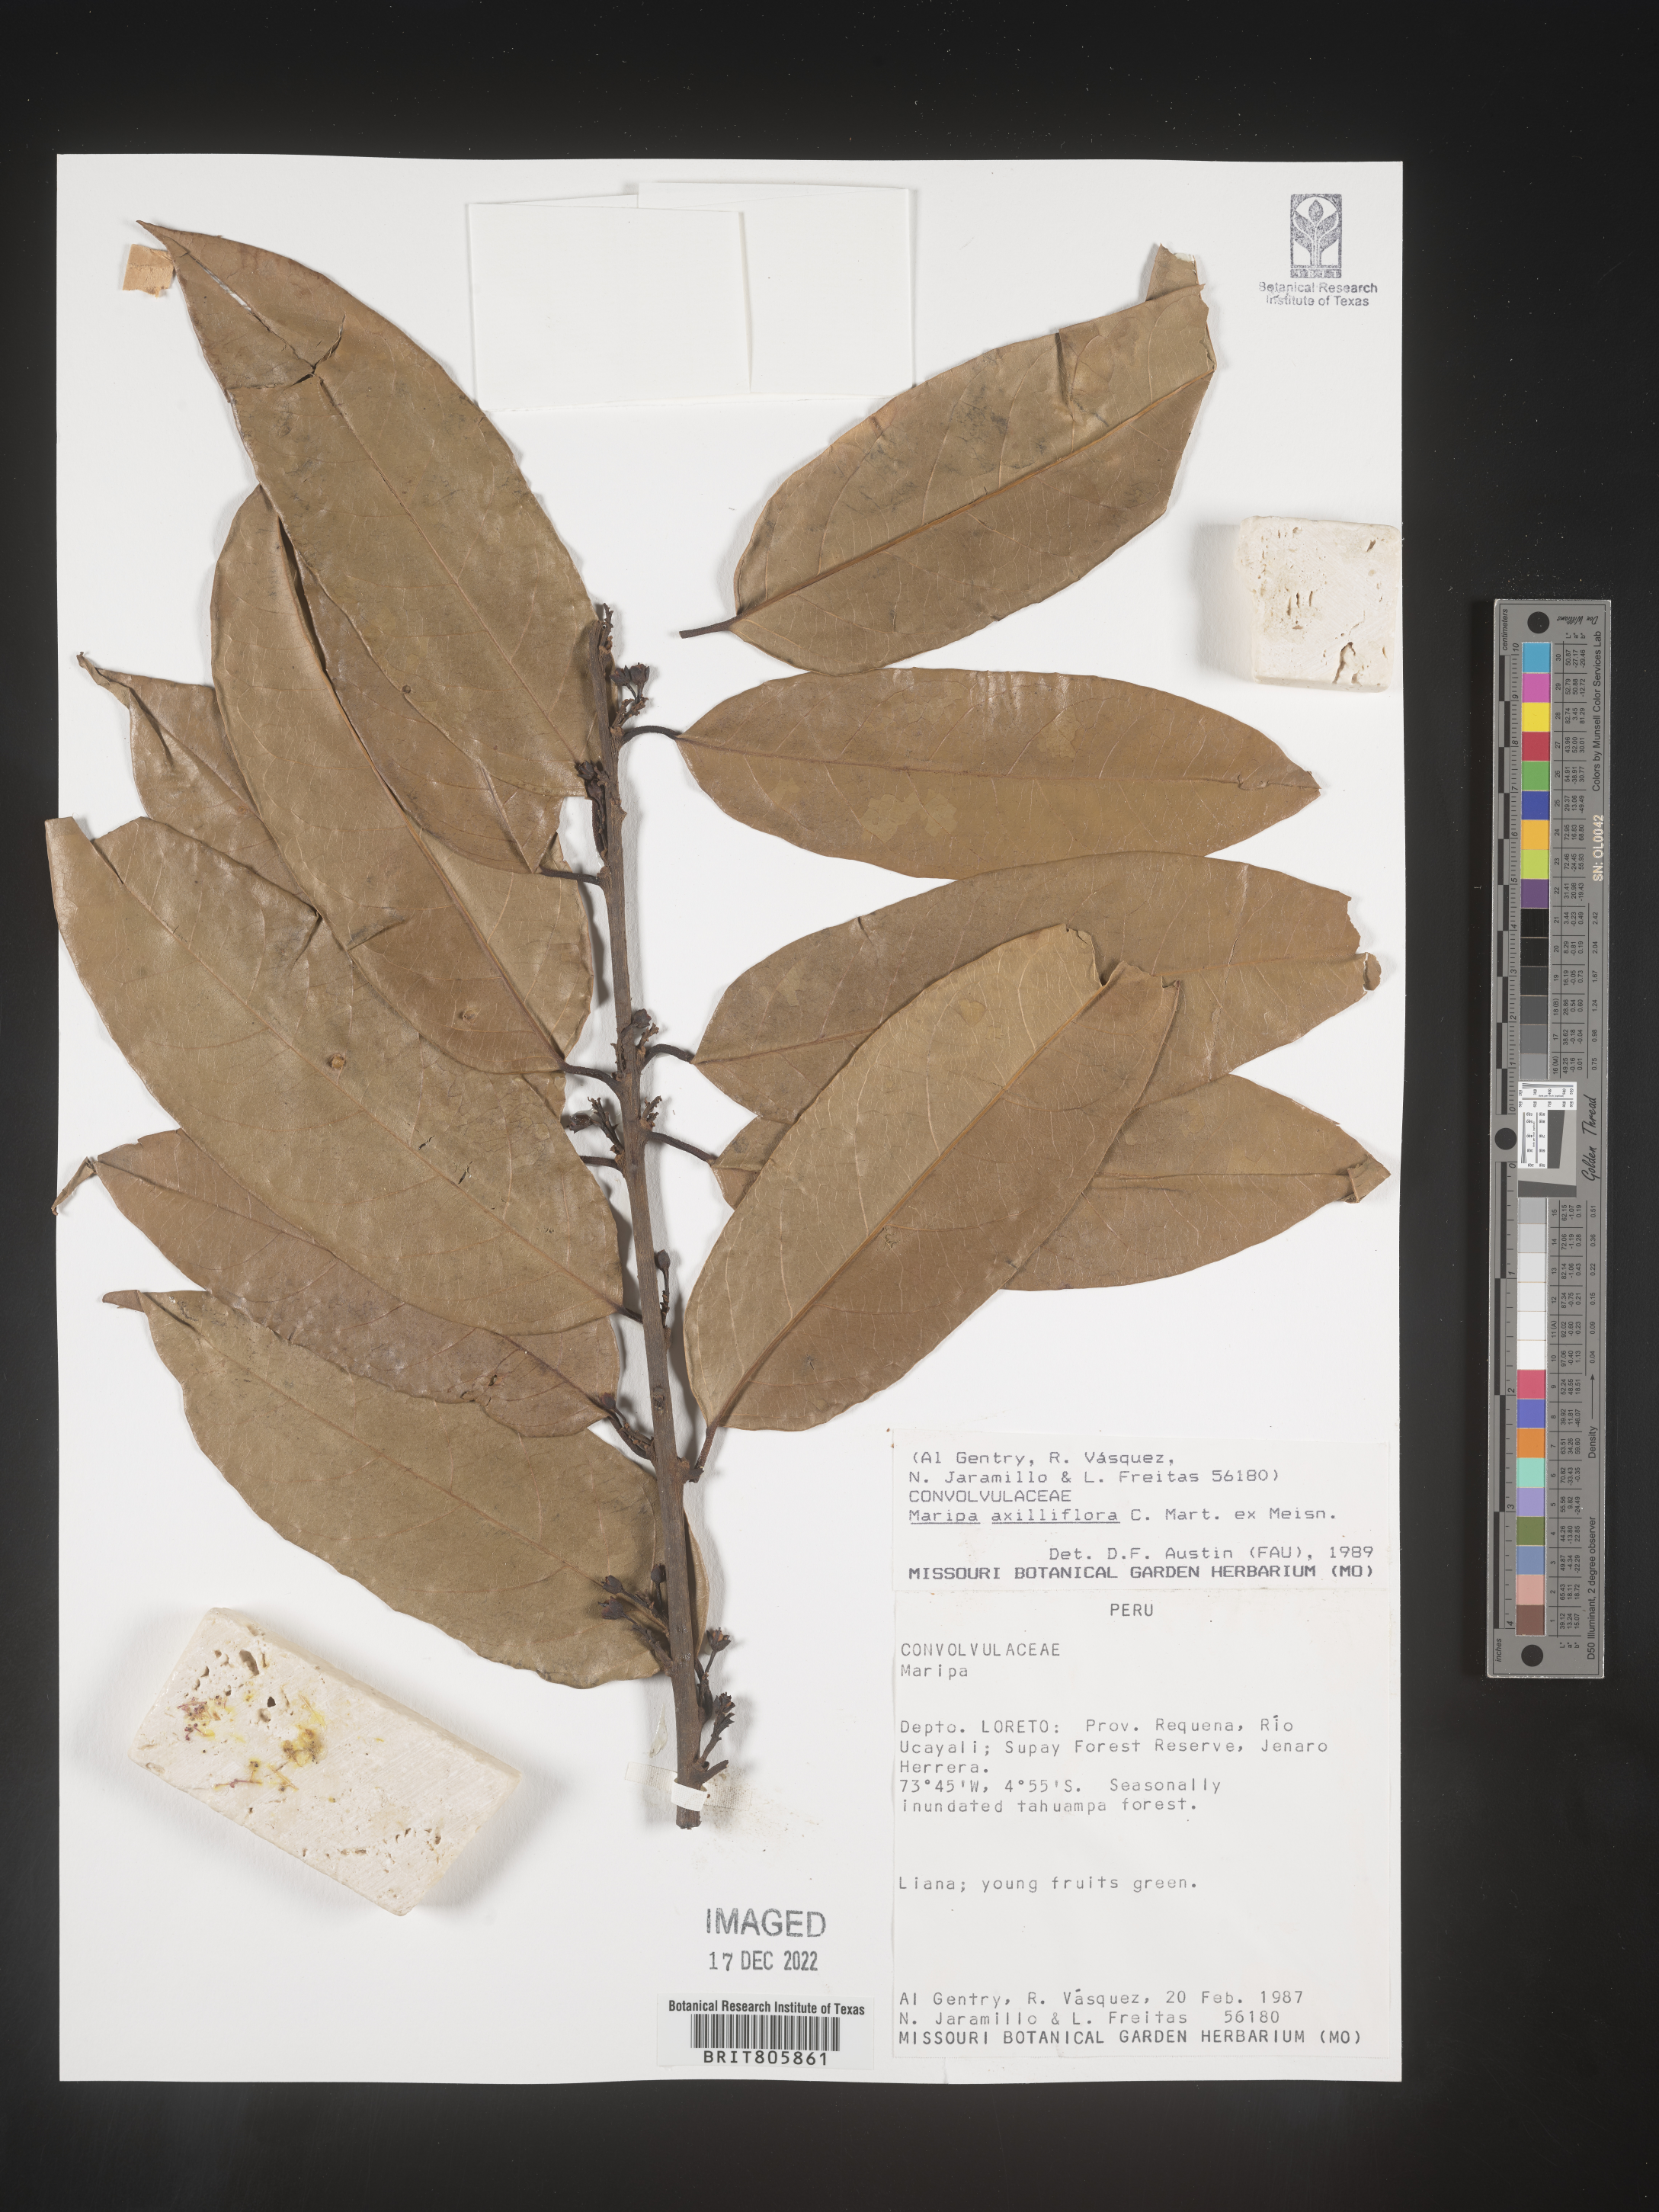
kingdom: Plantae
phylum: Tracheophyta
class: Magnoliopsida
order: Solanales
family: Convolvulaceae
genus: Maripa
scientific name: Maripa
